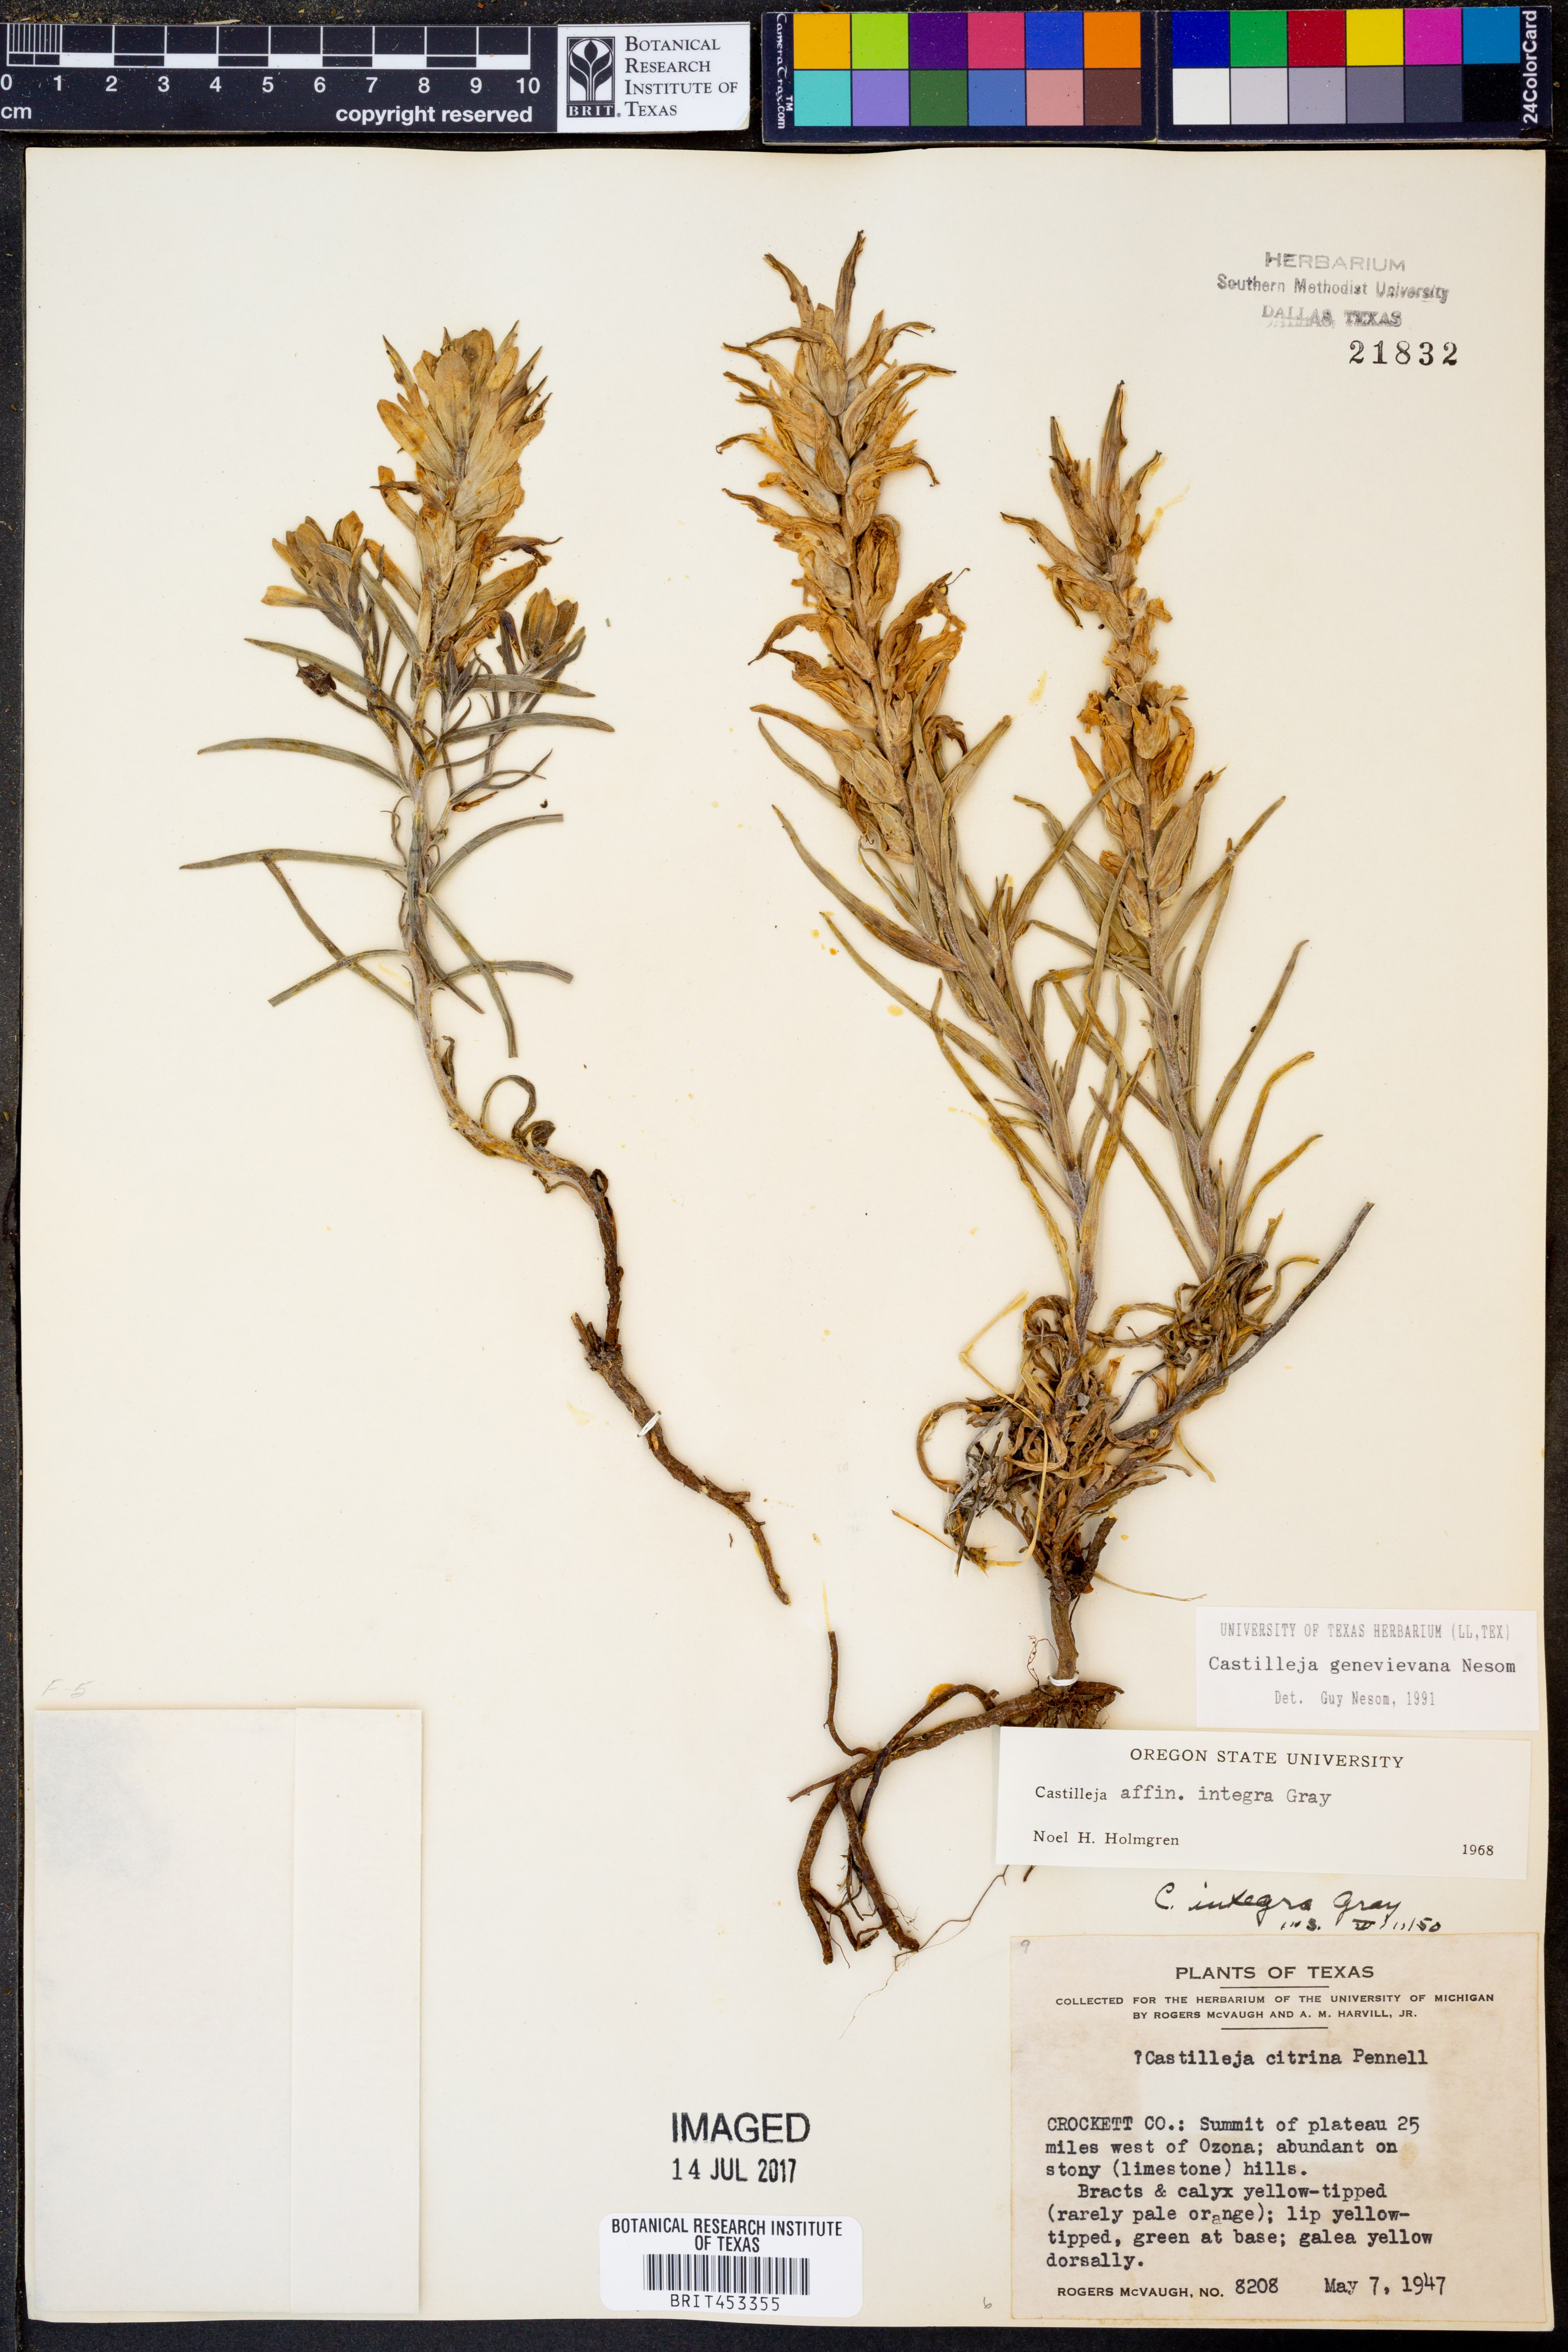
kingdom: Plantae
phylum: Tracheophyta
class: Magnoliopsida
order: Lamiales
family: Orobanchaceae
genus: Castilleja
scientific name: Castilleja genevievana
